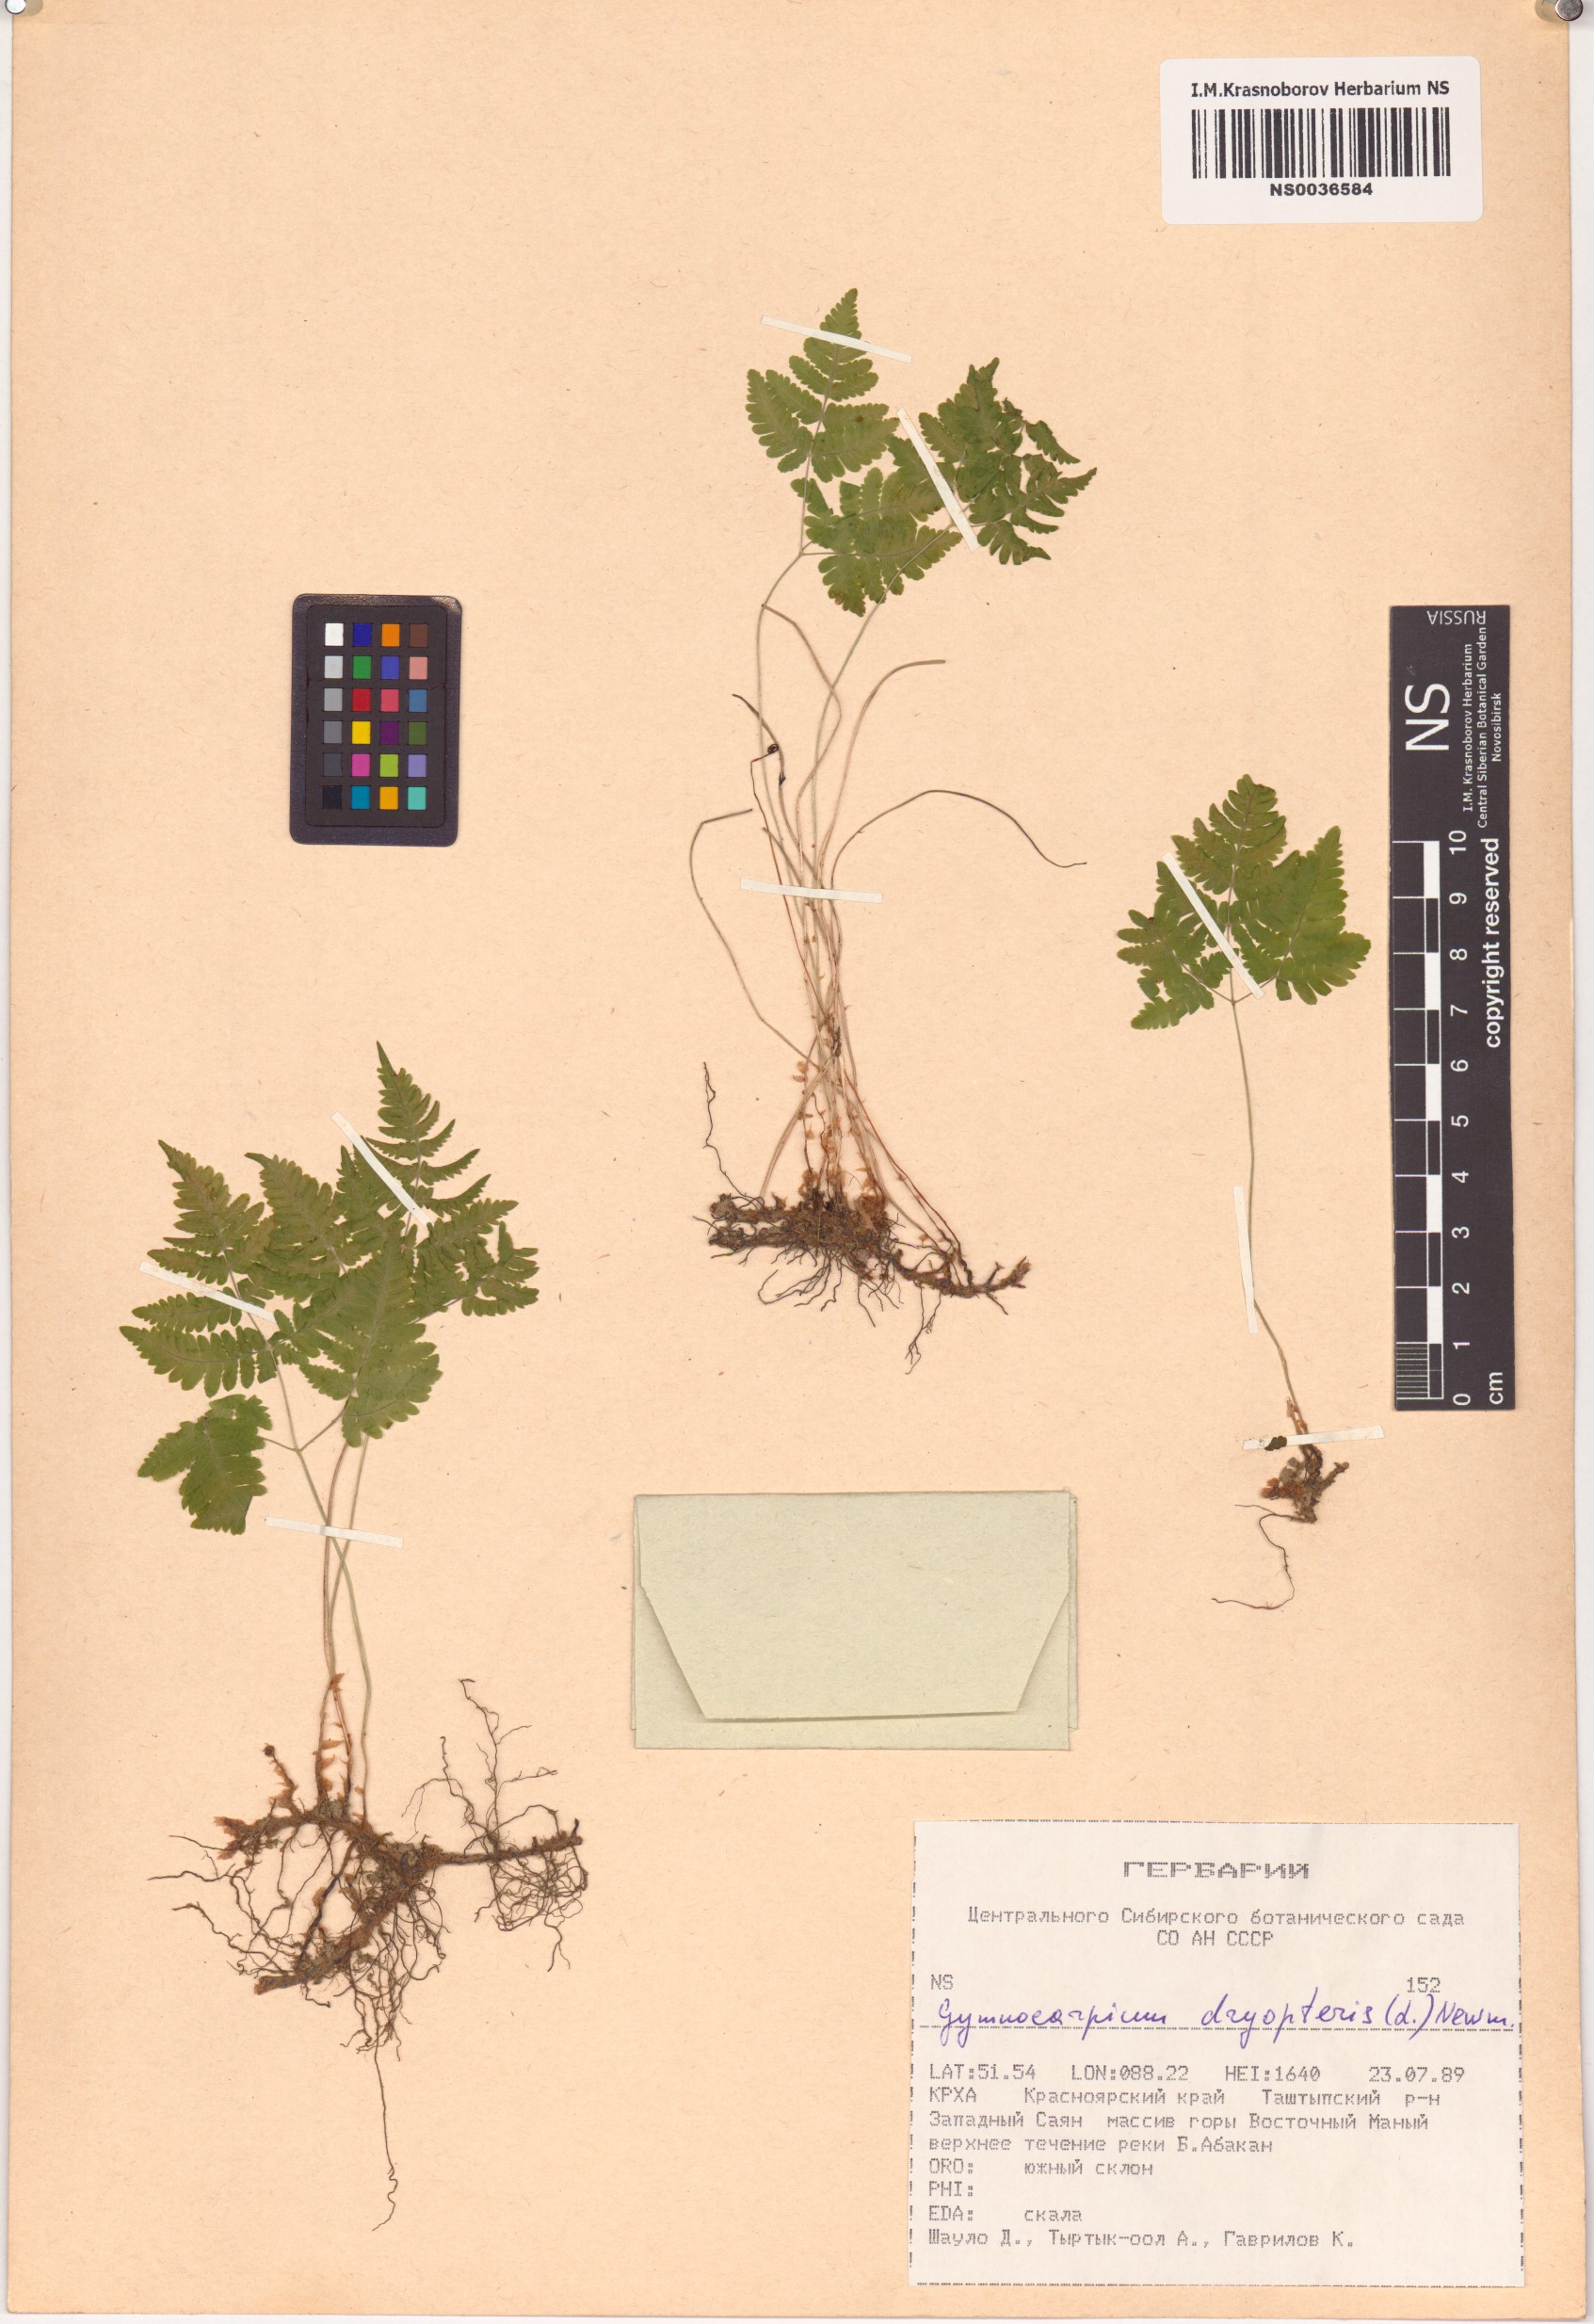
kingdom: Plantae
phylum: Tracheophyta
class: Polypodiopsida
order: Polypodiales
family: Cystopteridaceae
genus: Gymnocarpium
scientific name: Gymnocarpium dryopteris
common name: Oak fern
